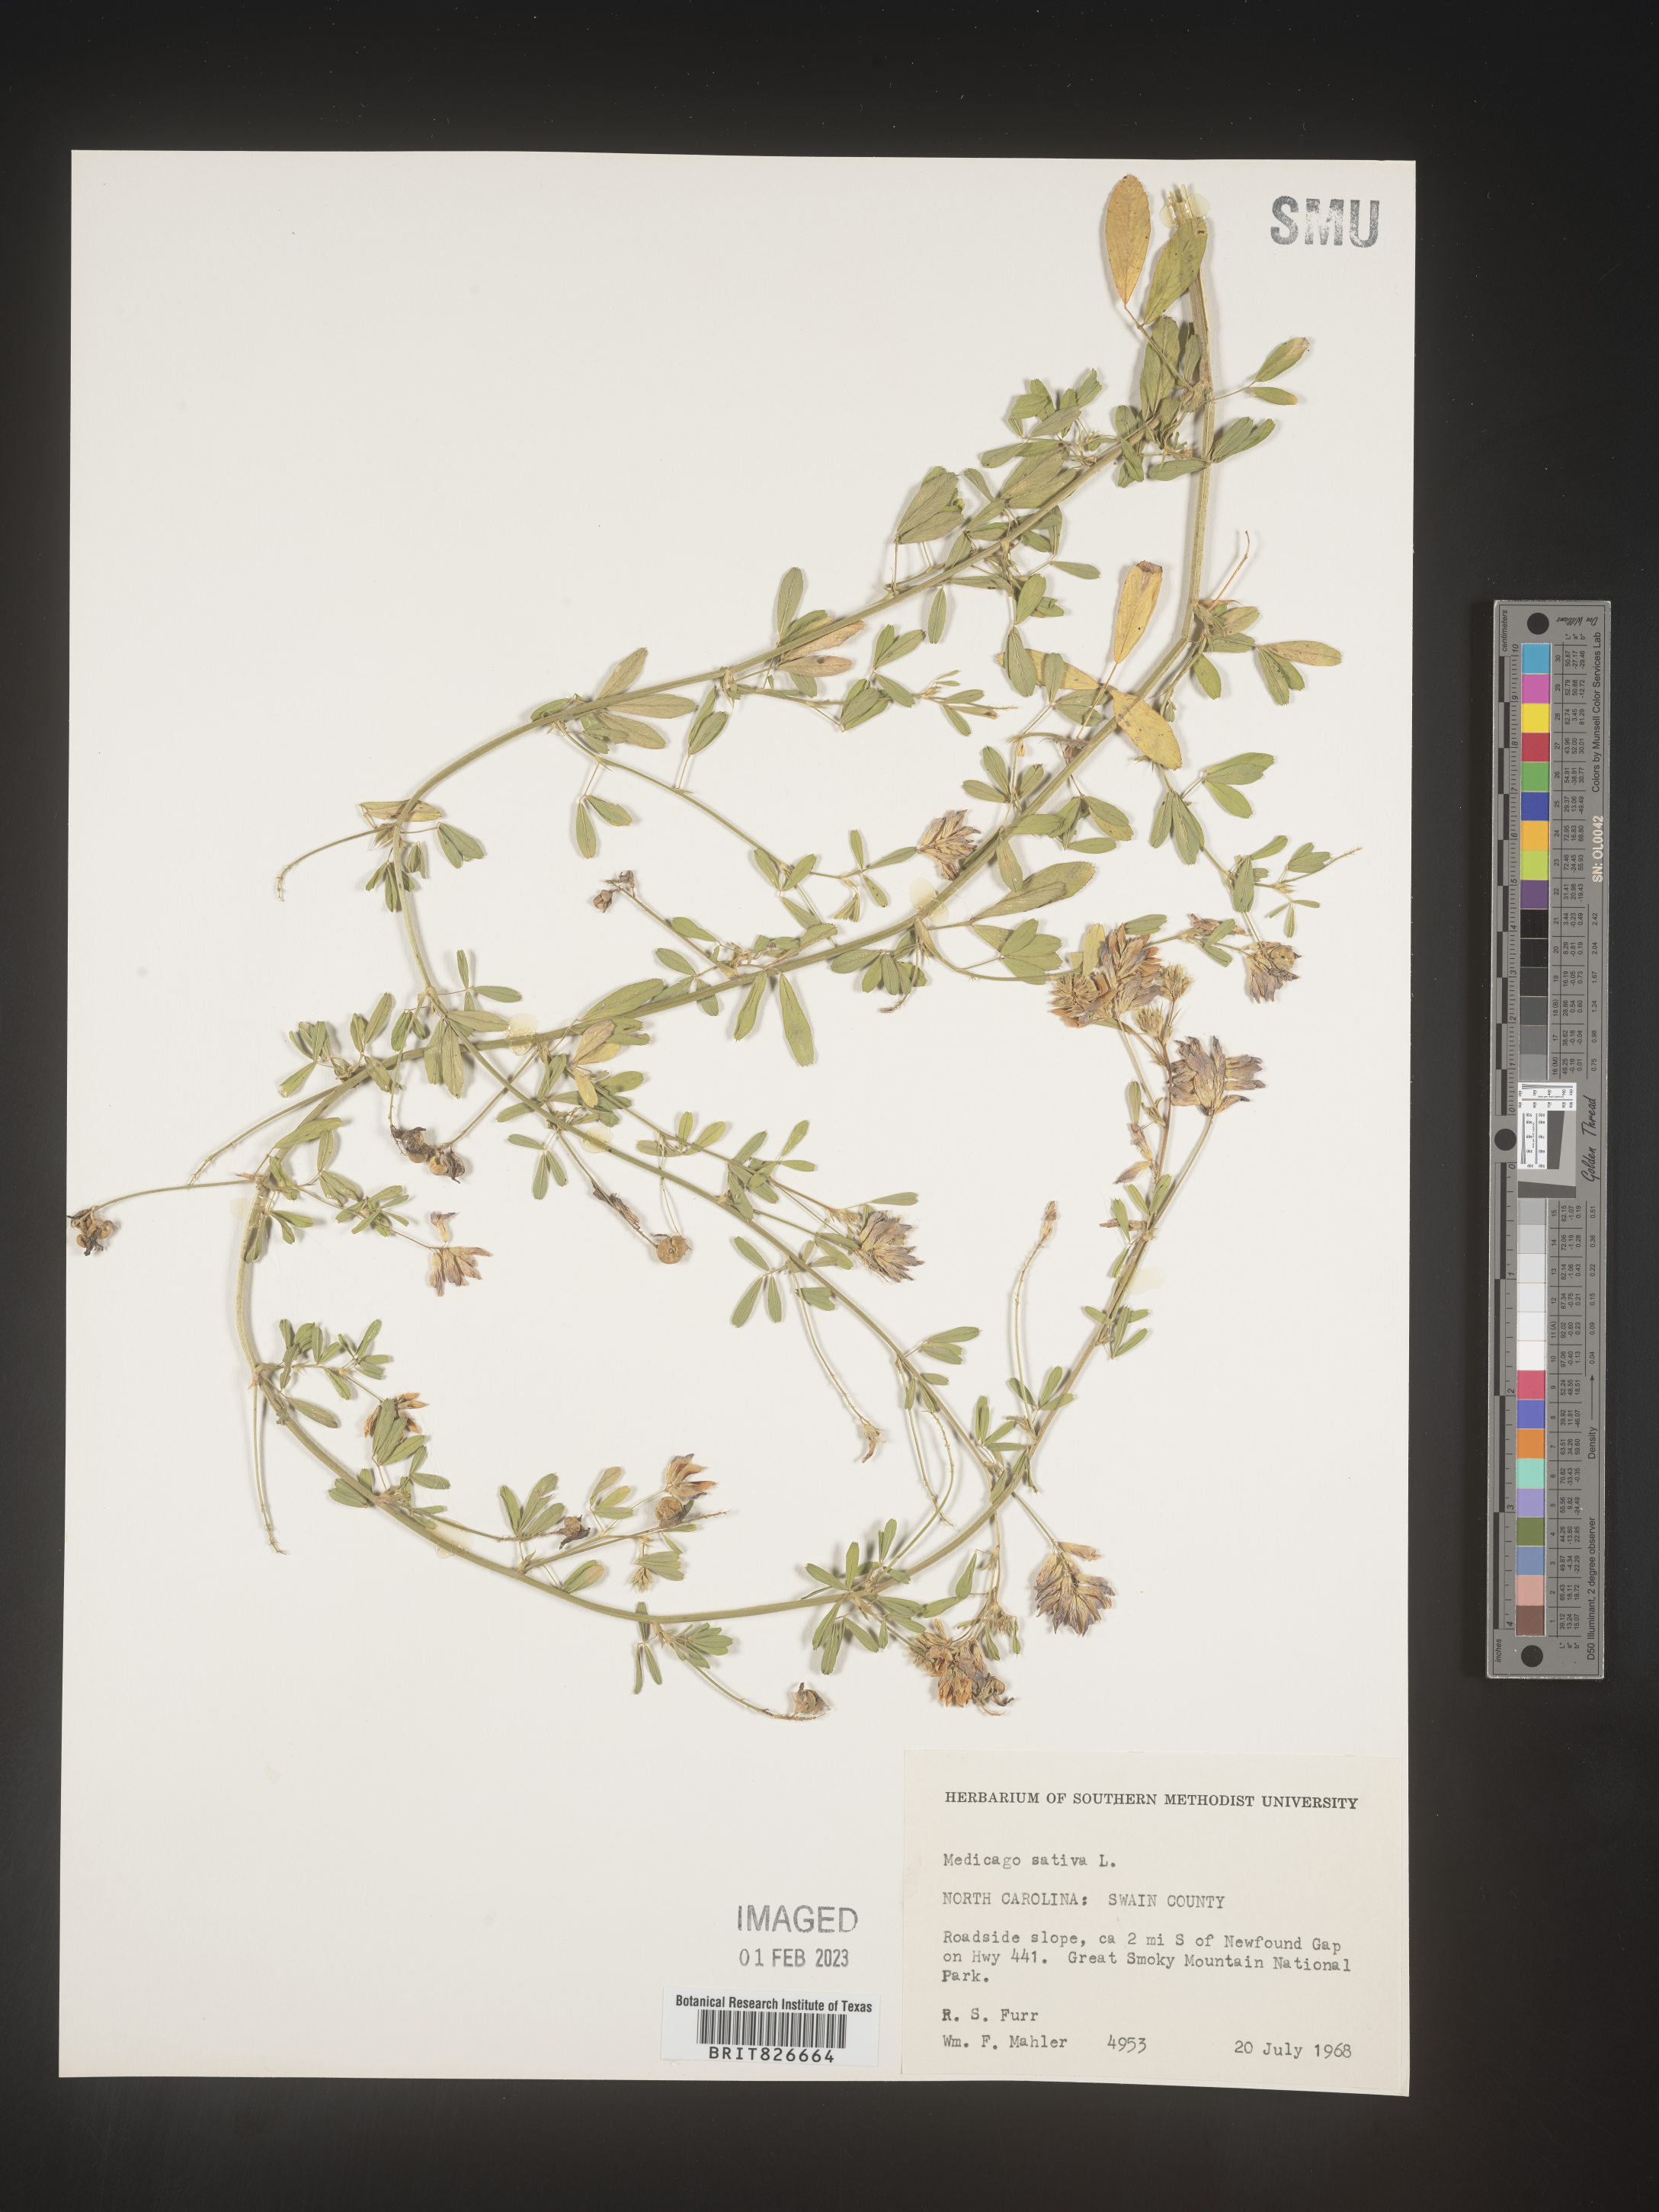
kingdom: Plantae
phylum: Tracheophyta
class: Magnoliopsida
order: Fabales
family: Fabaceae
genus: Medicago
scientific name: Medicago sativa
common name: Alfalfa
